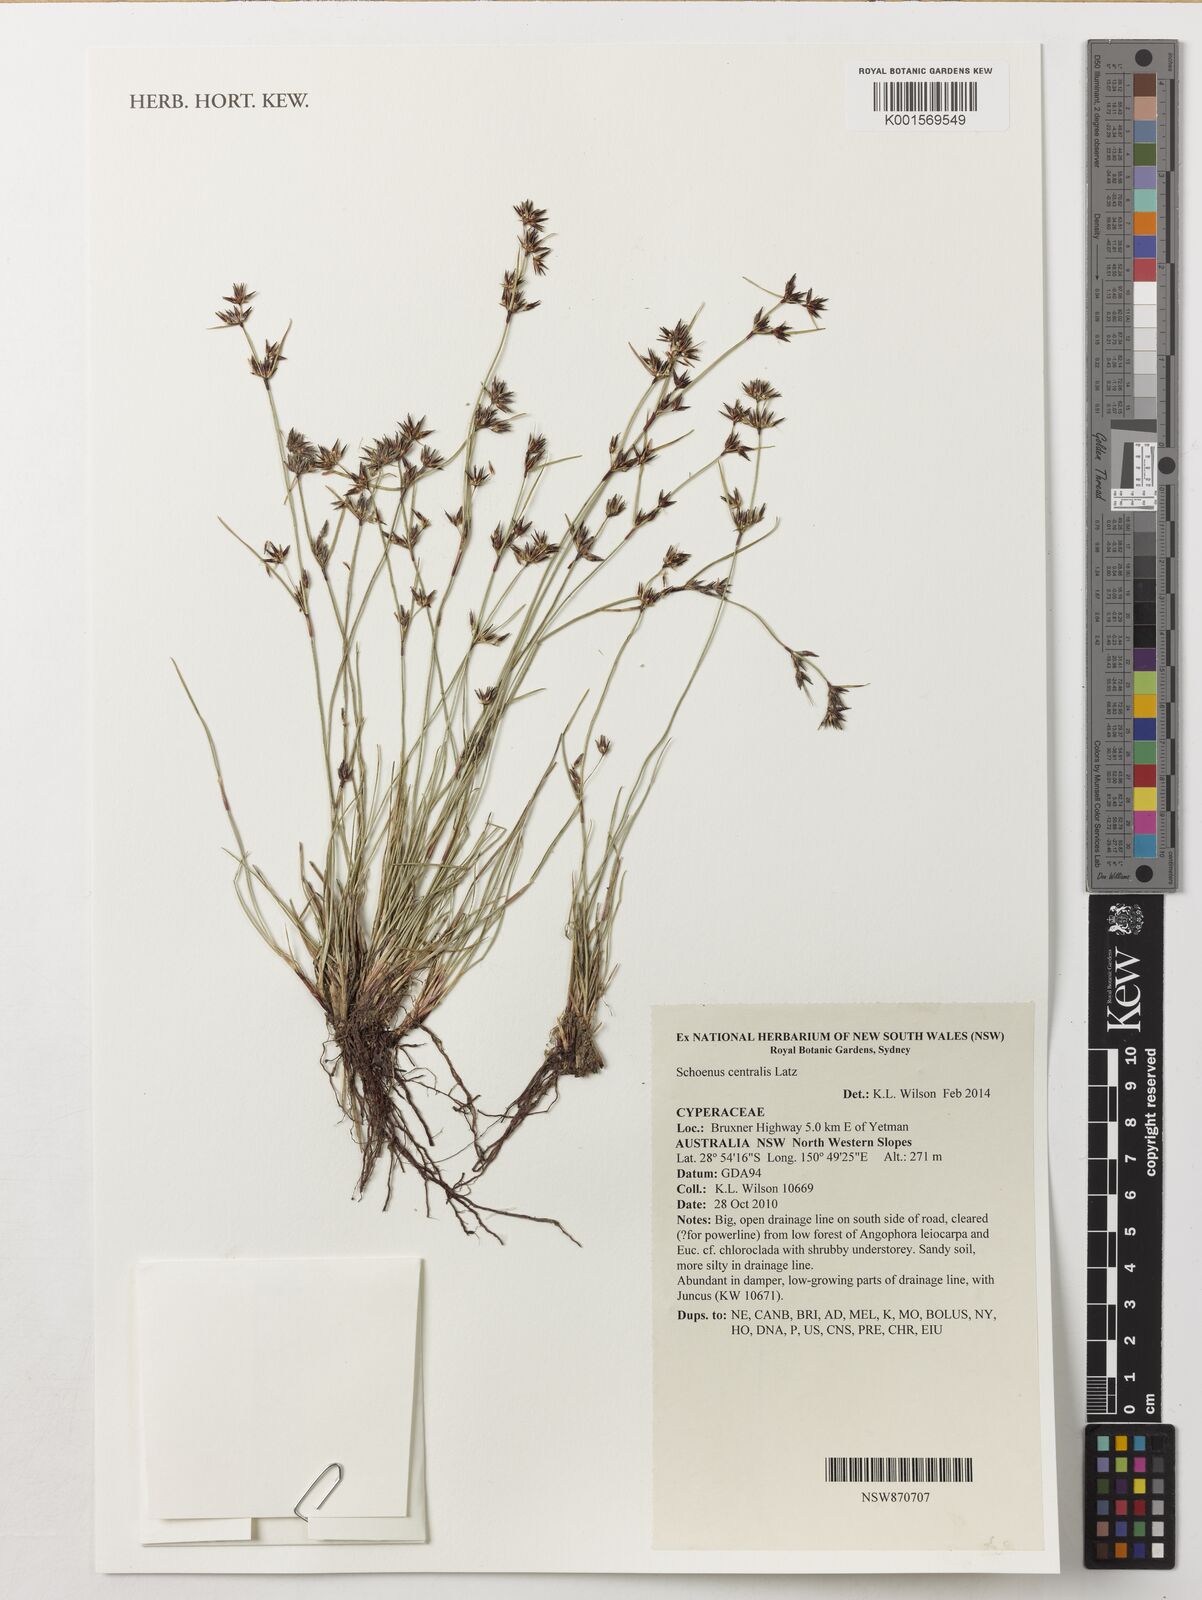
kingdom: Plantae
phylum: Tracheophyta
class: Liliopsida
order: Poales
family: Cyperaceae
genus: Schoenus
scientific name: Schoenus centralis
